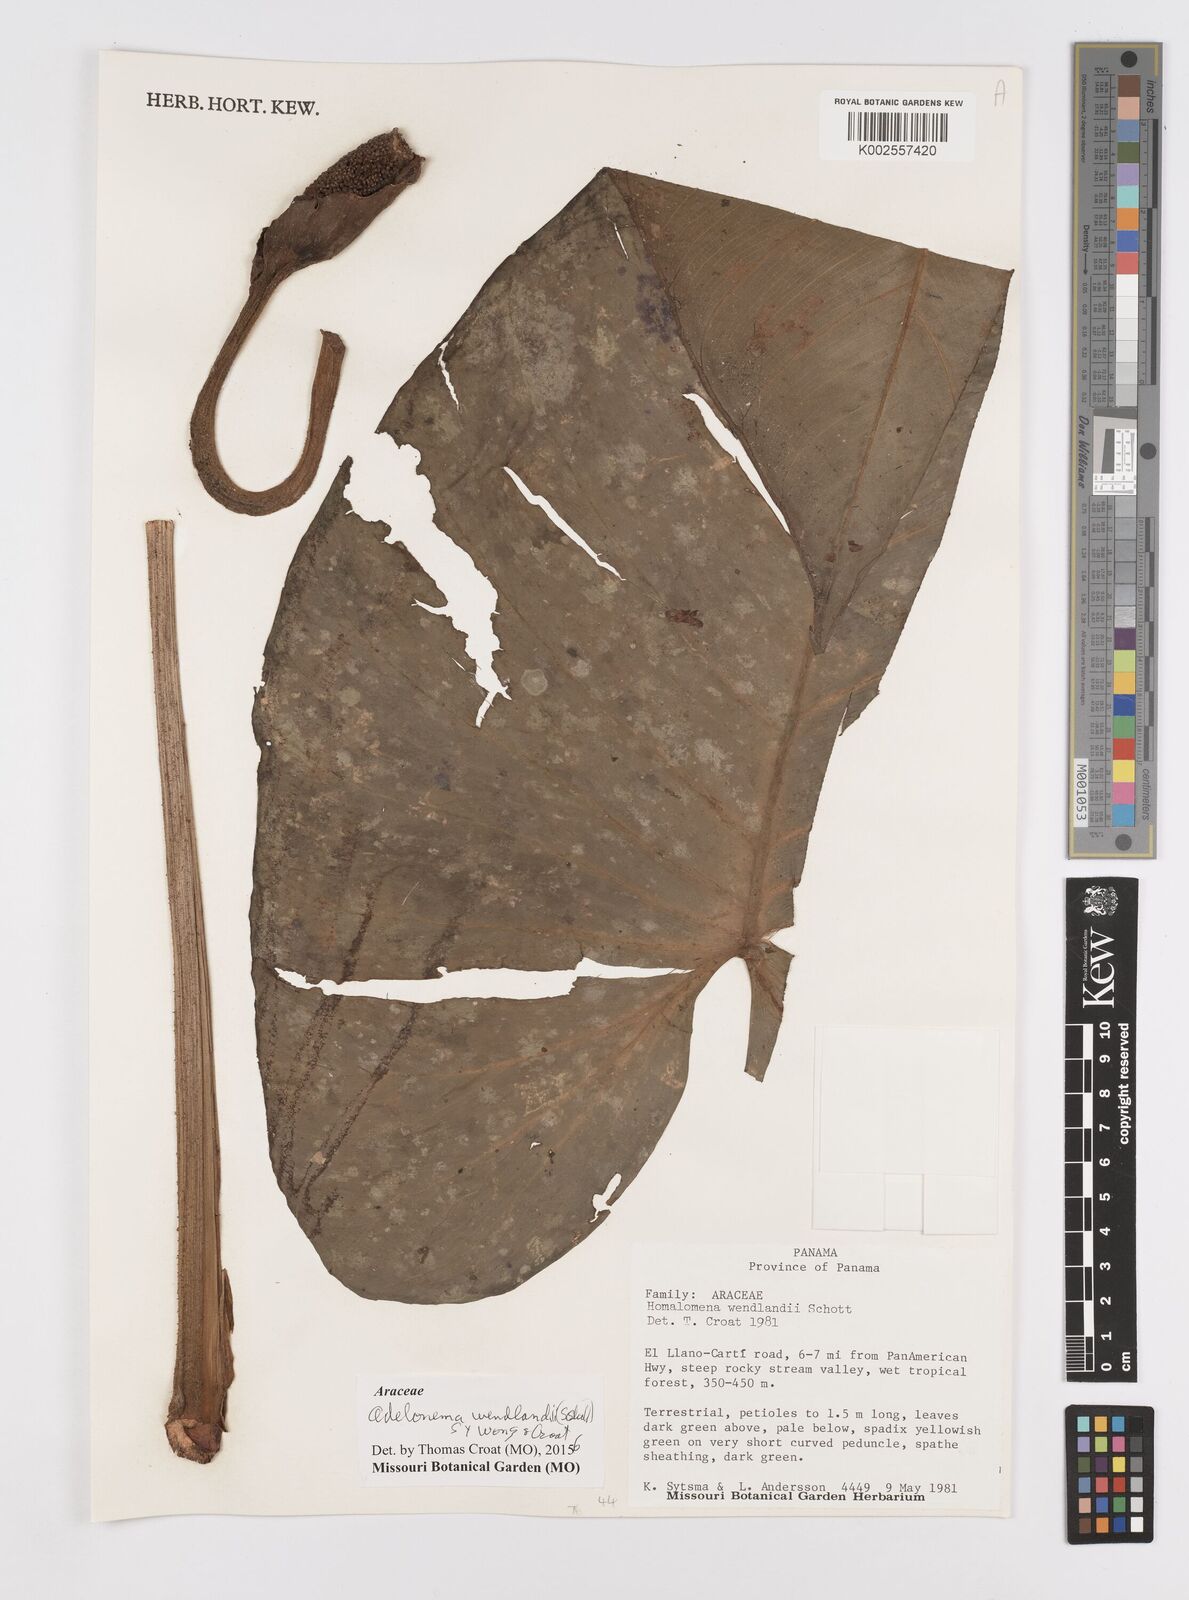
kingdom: Plantae
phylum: Tracheophyta
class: Liliopsida
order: Alismatales
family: Araceae
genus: Adelonema
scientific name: Adelonema wendlandii
